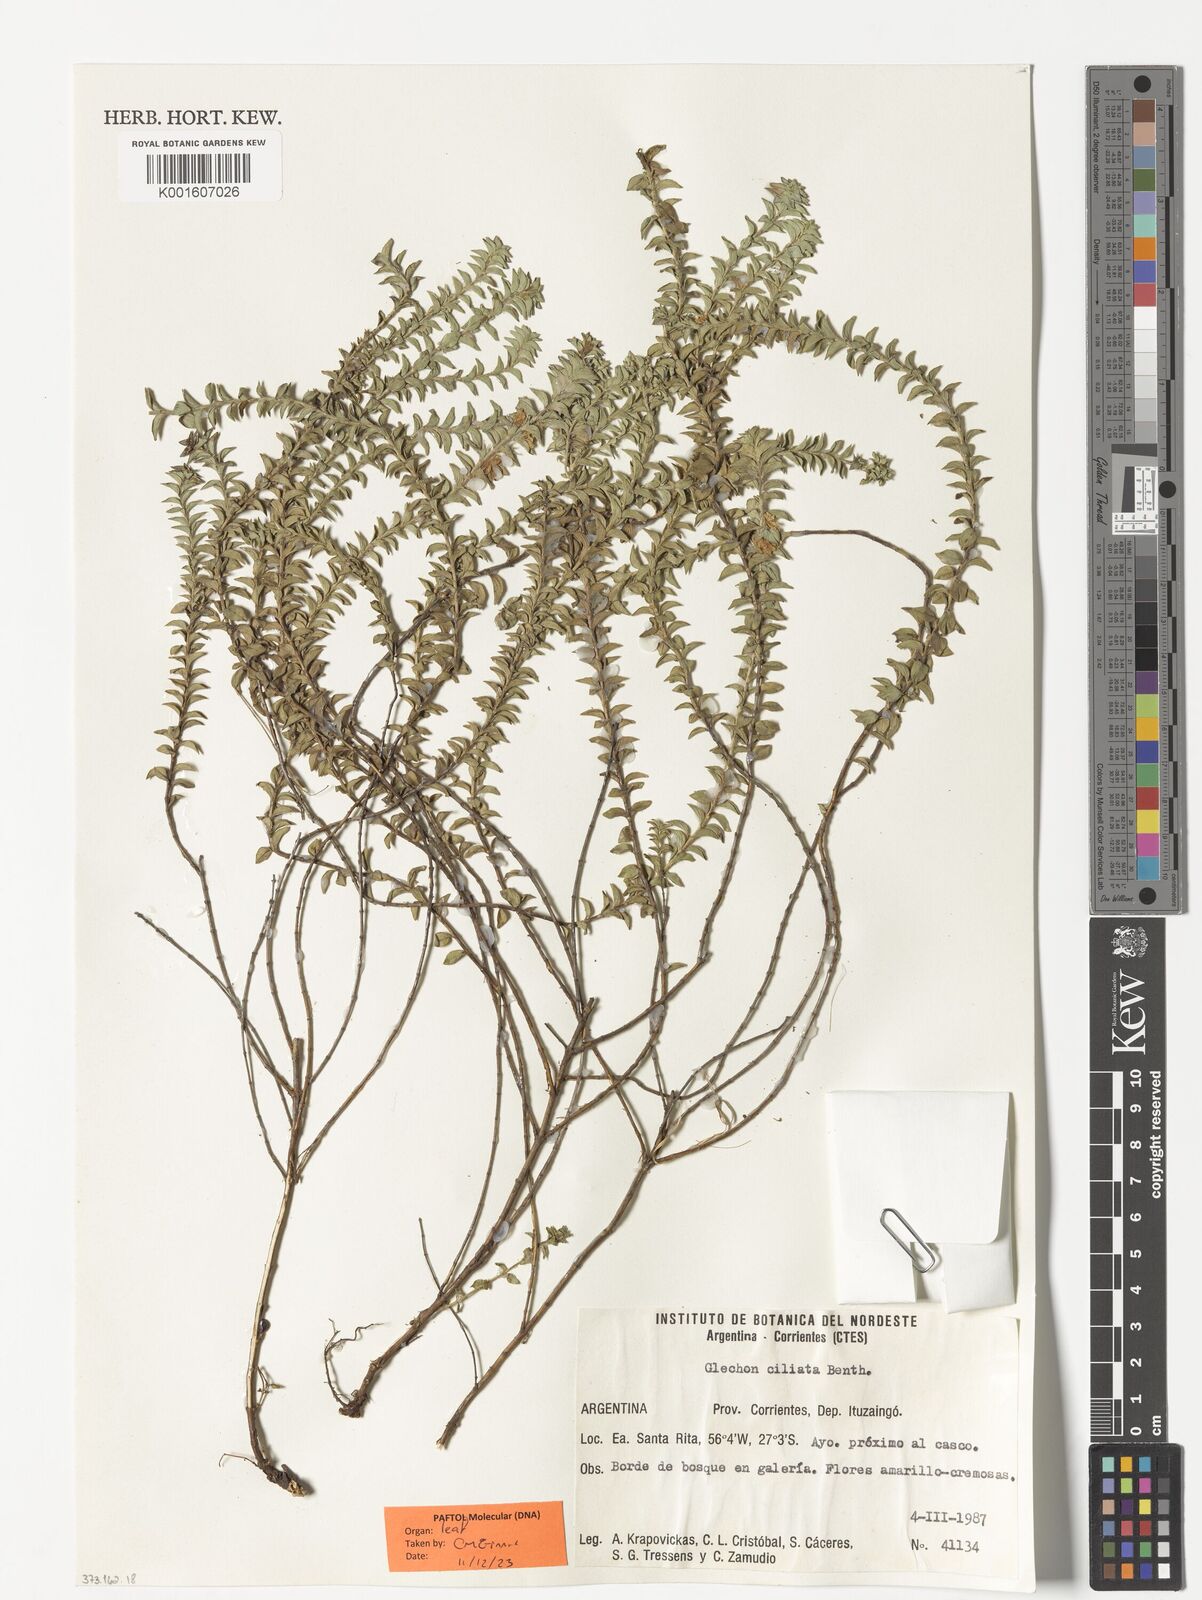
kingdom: Plantae
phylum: Tracheophyta
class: Magnoliopsida
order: Lamiales
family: Lamiaceae
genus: Glechon
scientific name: Glechon ciliata
